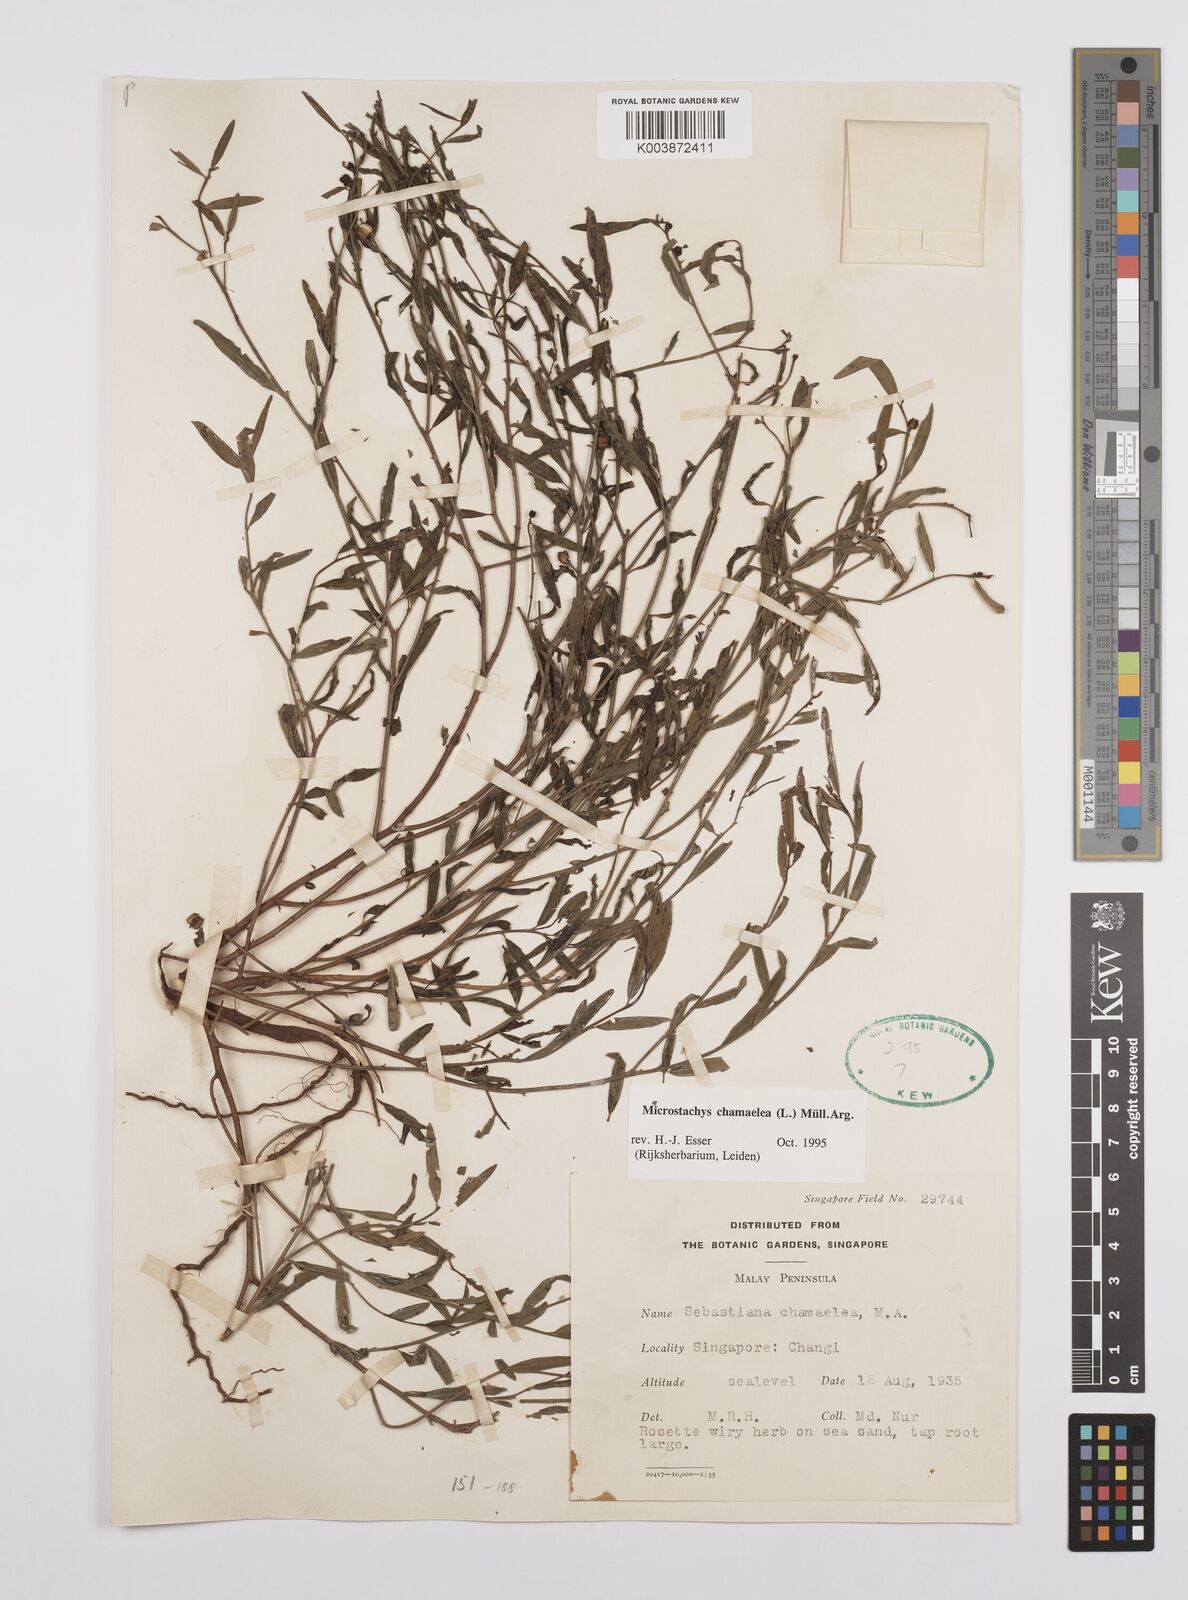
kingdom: Plantae
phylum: Tracheophyta
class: Magnoliopsida
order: Malpighiales
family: Euphorbiaceae
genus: Microstachys
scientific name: Microstachys chamaelea
